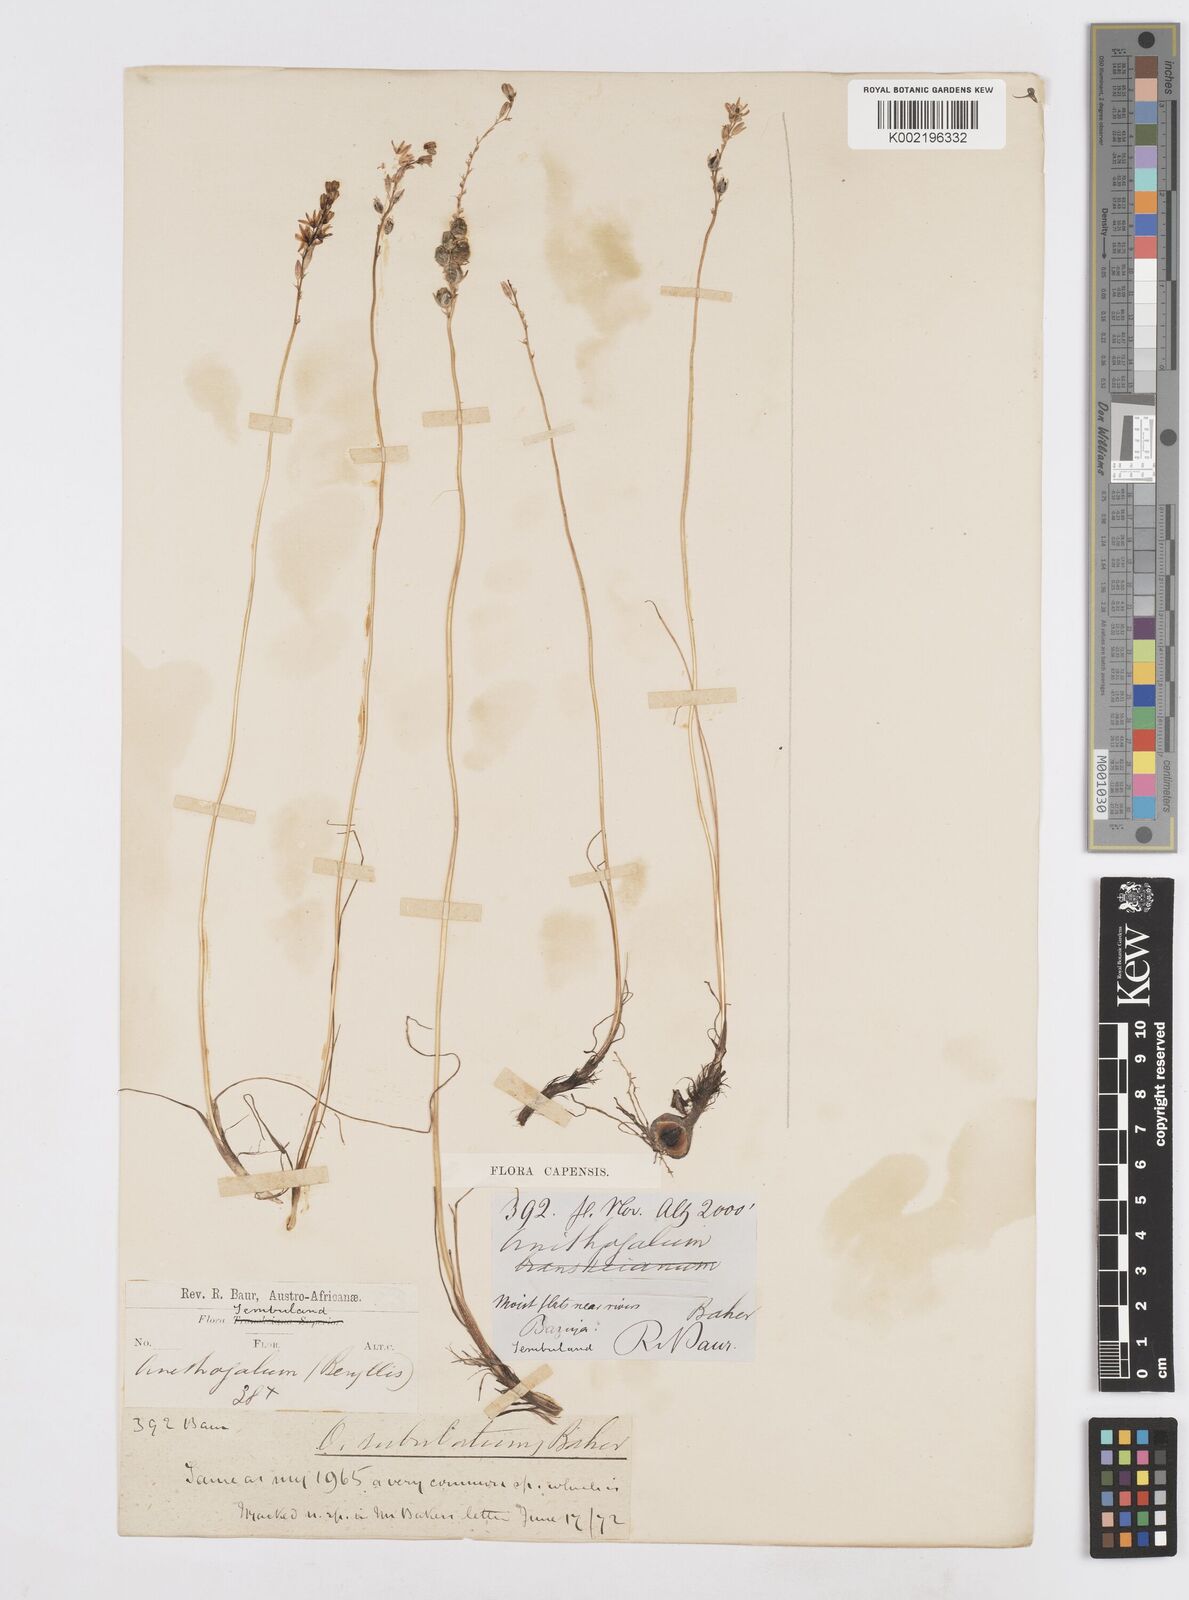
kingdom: Plantae
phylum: Tracheophyta
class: Liliopsida
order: Asparagales
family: Asparagaceae
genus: Ornithogalum
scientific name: Ornithogalum juncifolium
